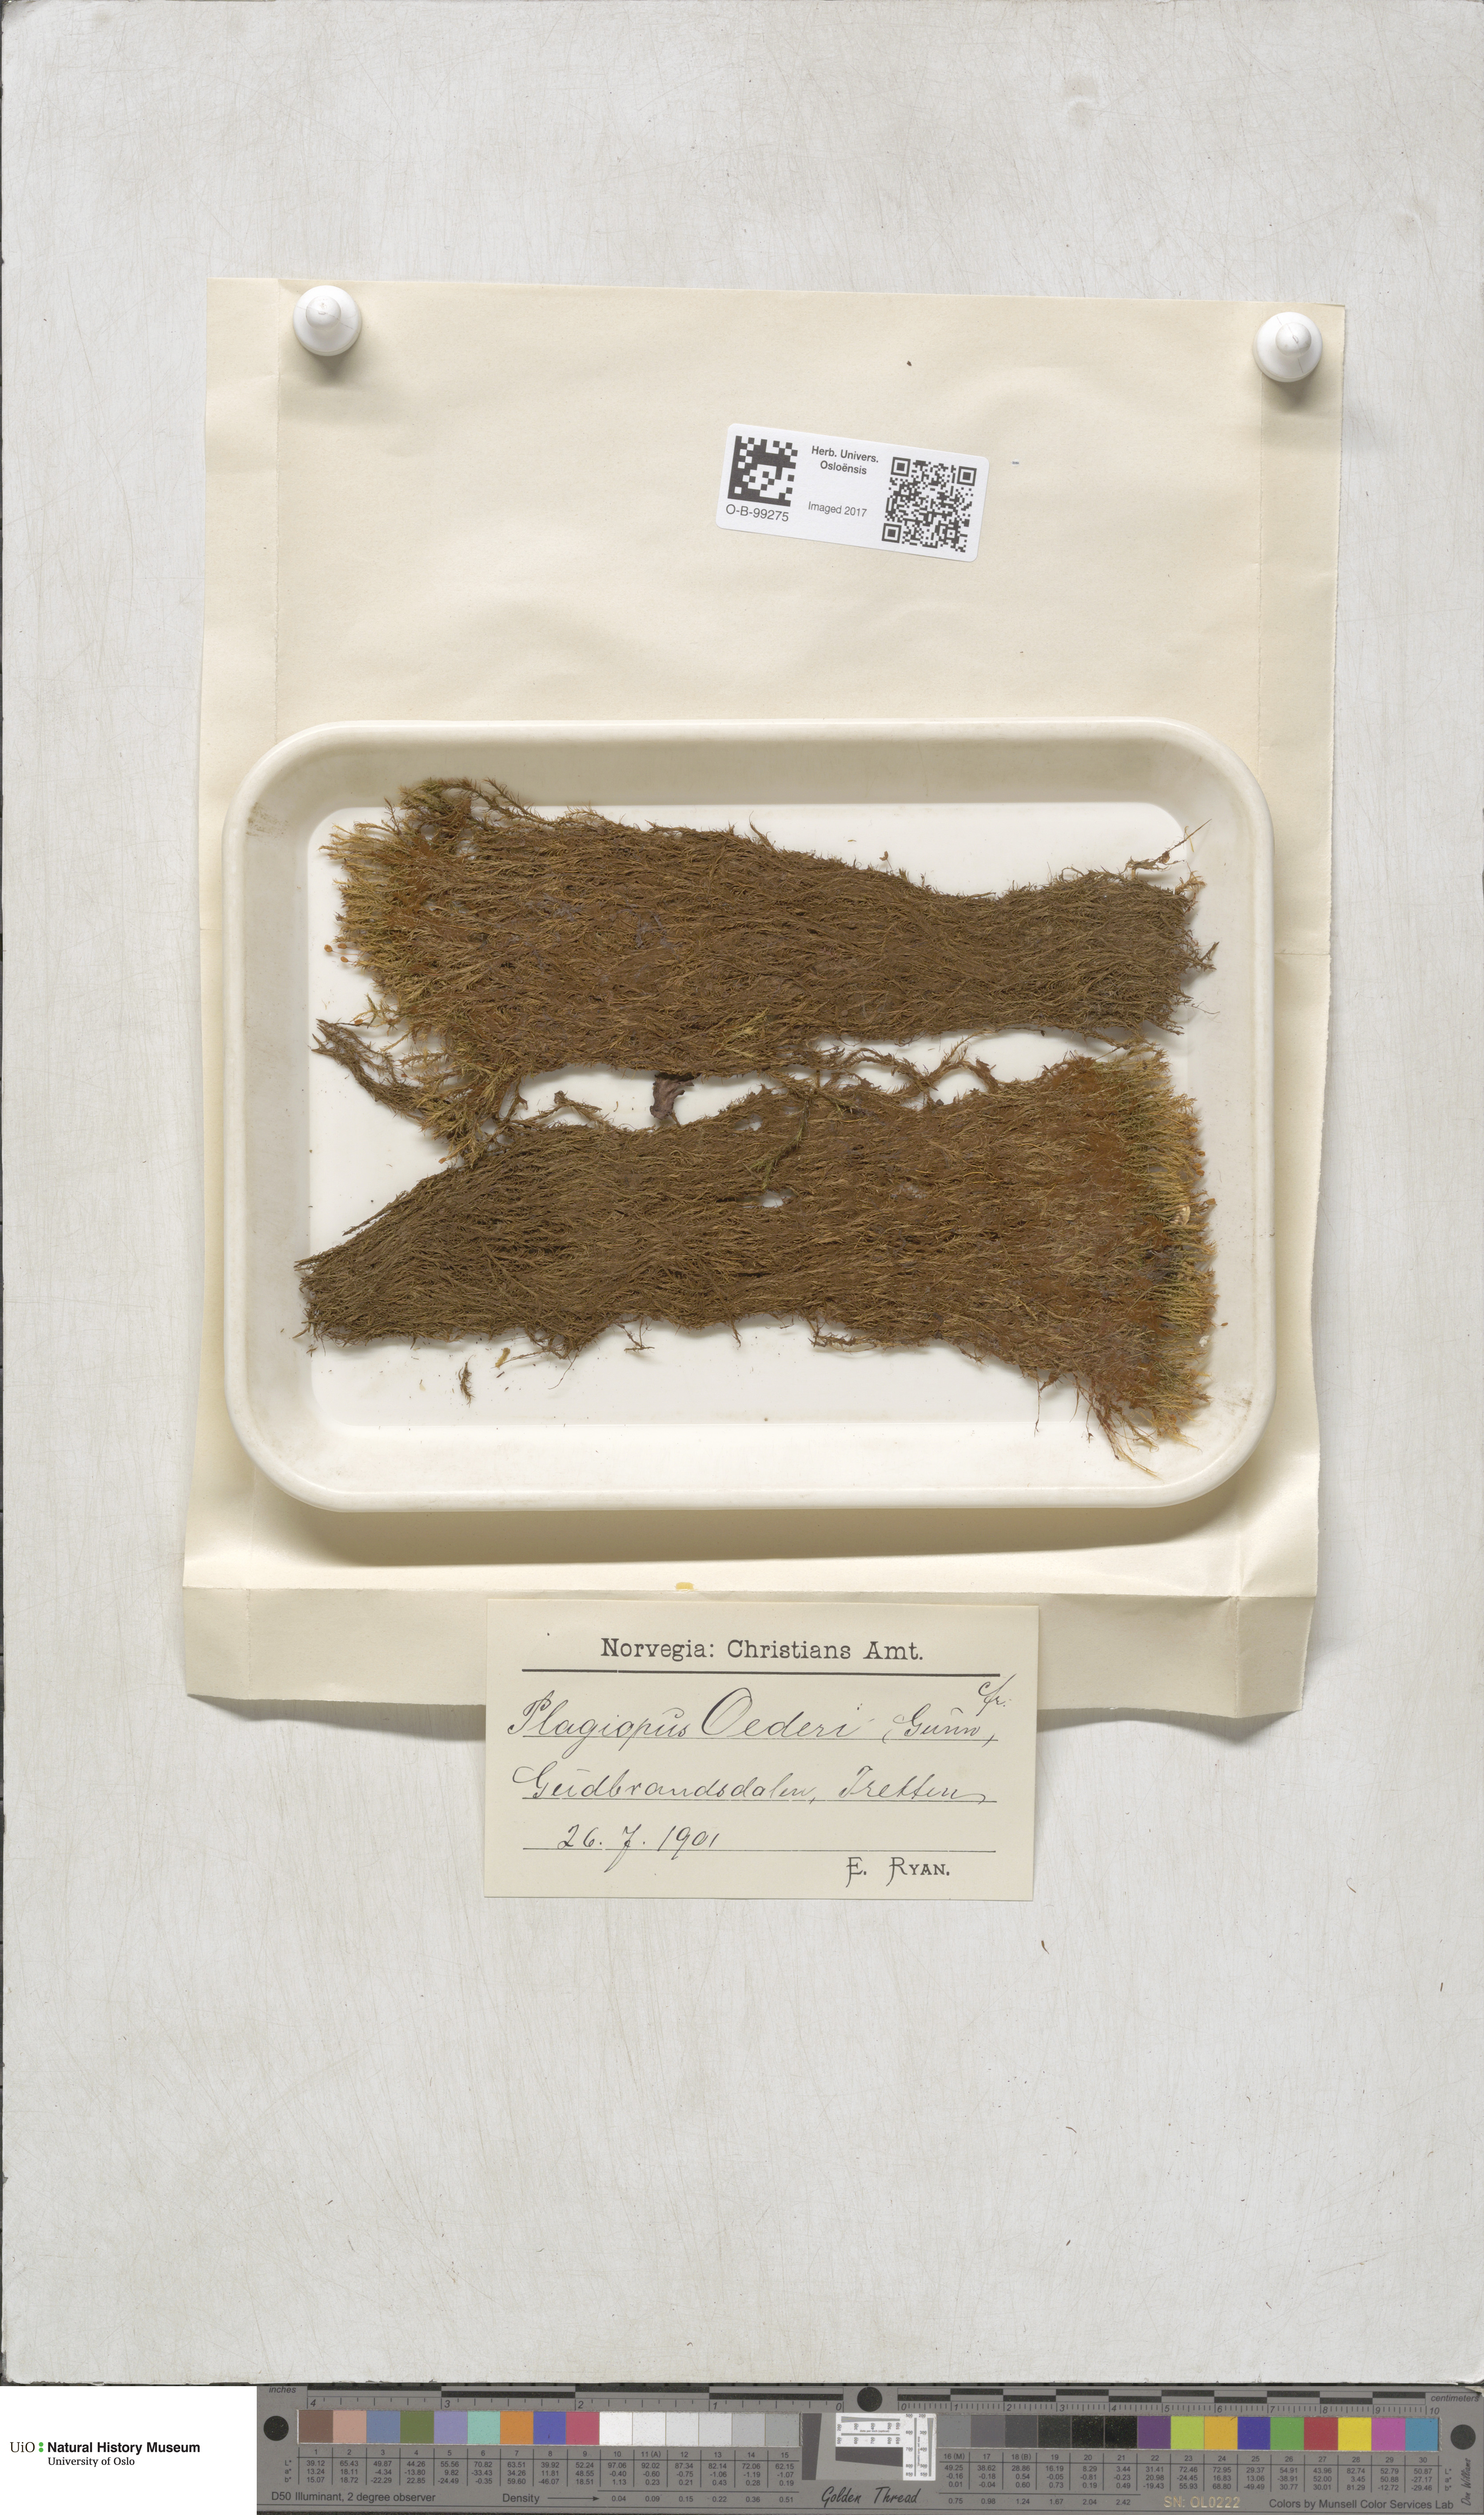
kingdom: Plantae
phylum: Bryophyta
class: Bryopsida
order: Bartramiales
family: Bartramiaceae
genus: Plagiopus
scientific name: Plagiopus oederianus
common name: Oeder's apple moss
